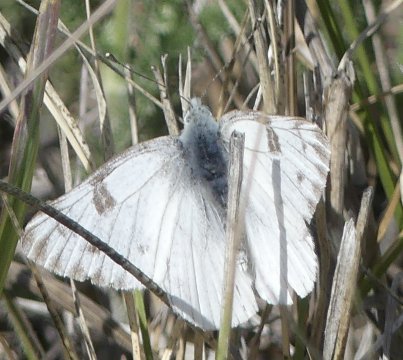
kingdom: Animalia
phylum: Arthropoda
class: Insecta
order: Lepidoptera
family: Pieridae
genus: Pontia
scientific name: Pontia occidentalis
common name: Western White
